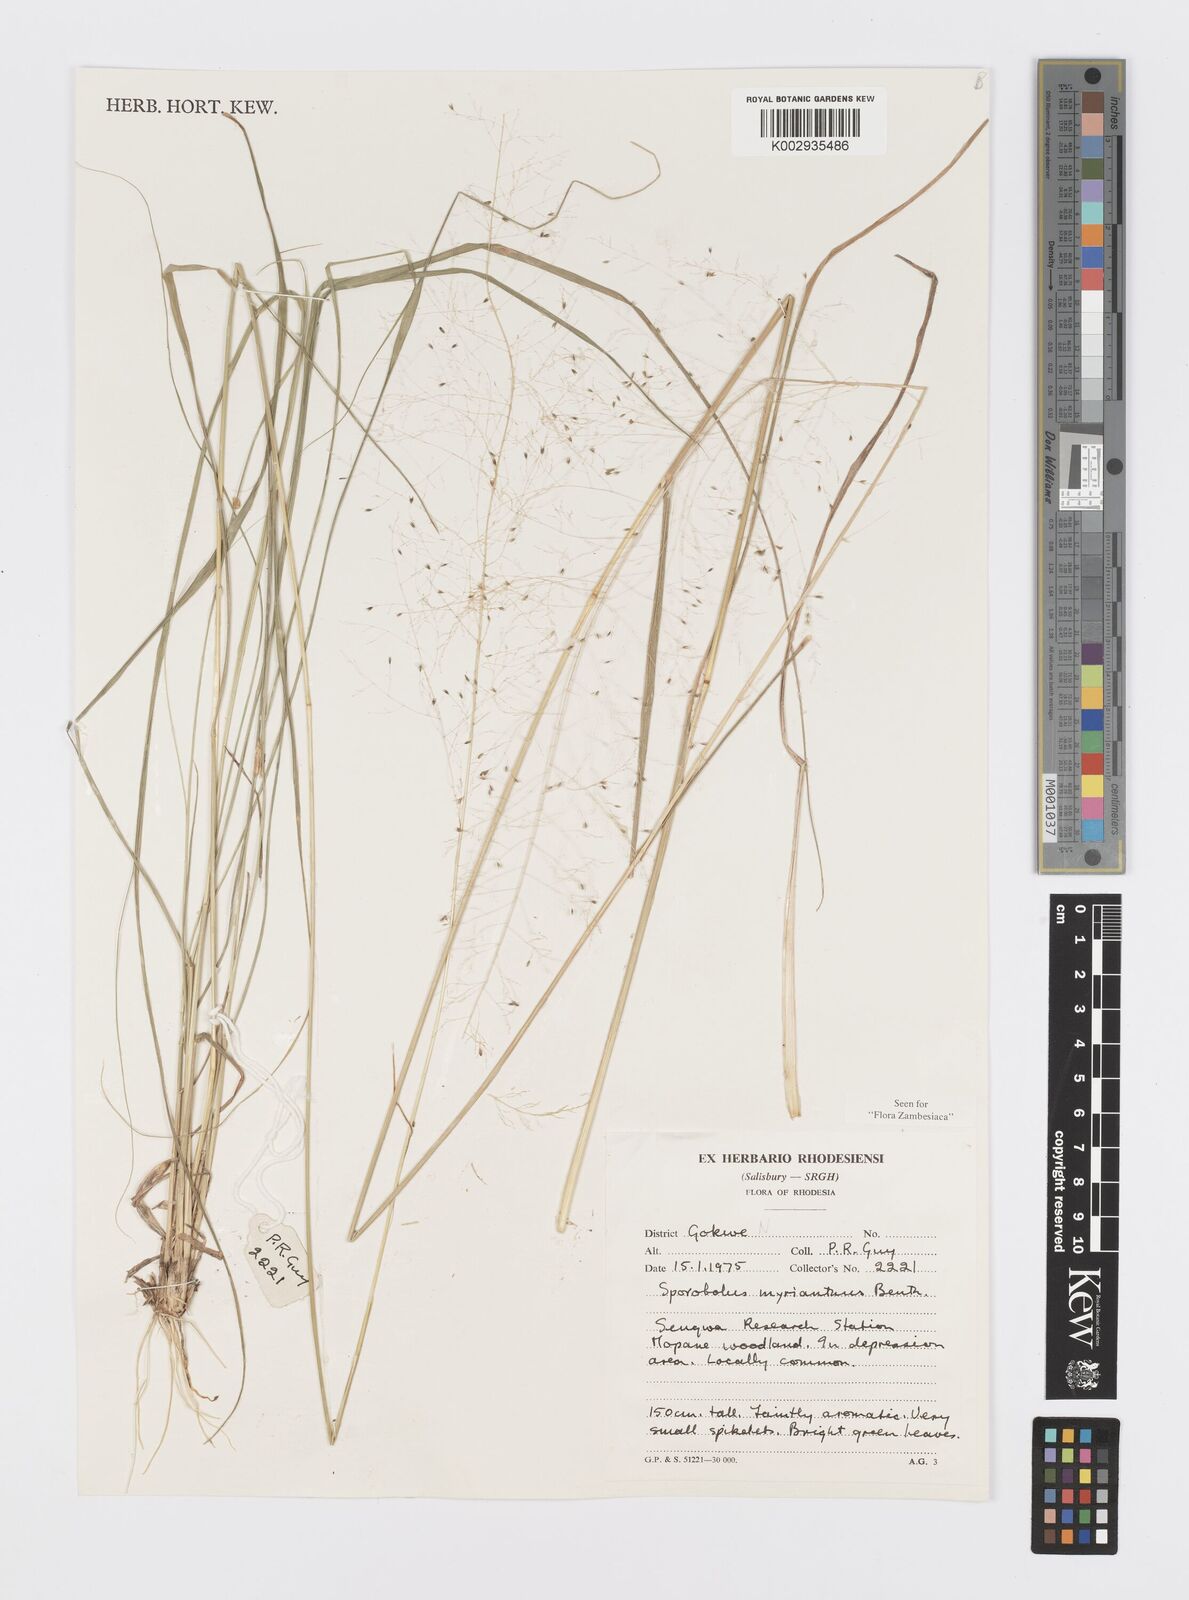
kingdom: Plantae
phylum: Tracheophyta
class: Liliopsida
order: Poales
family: Poaceae
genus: Sporobolus
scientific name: Sporobolus myrianthus
